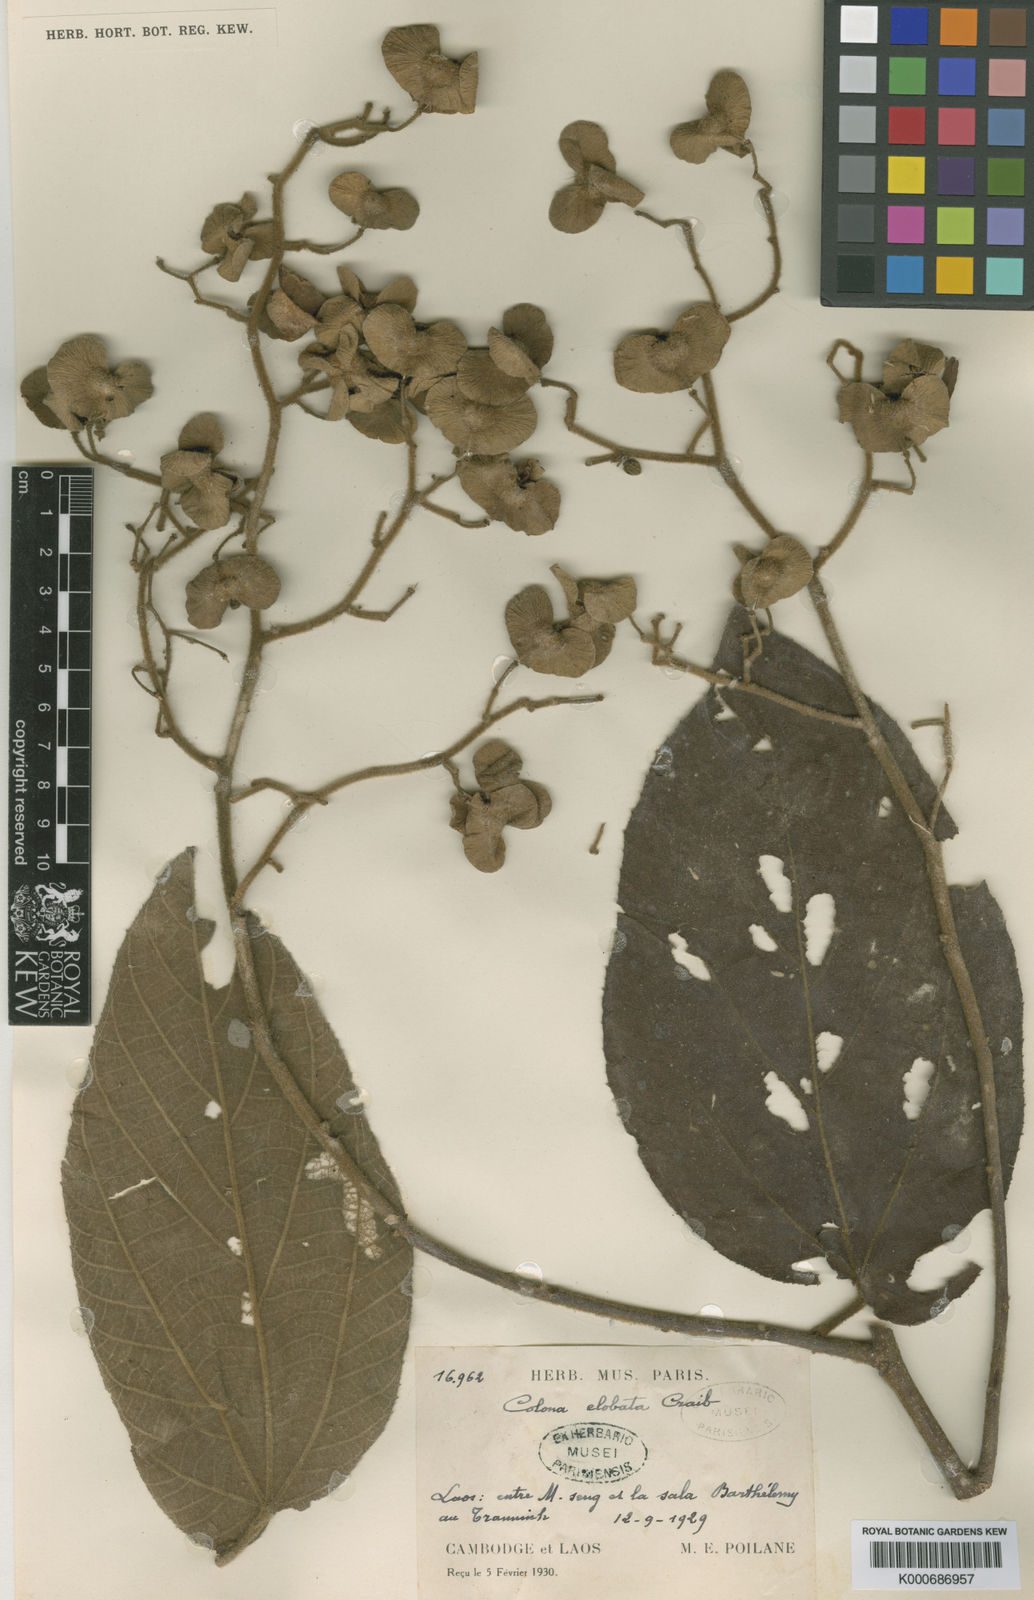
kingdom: Plantae
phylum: Tracheophyta
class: Magnoliopsida
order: Malvales
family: Malvaceae
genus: Colona
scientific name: Colona elobata
